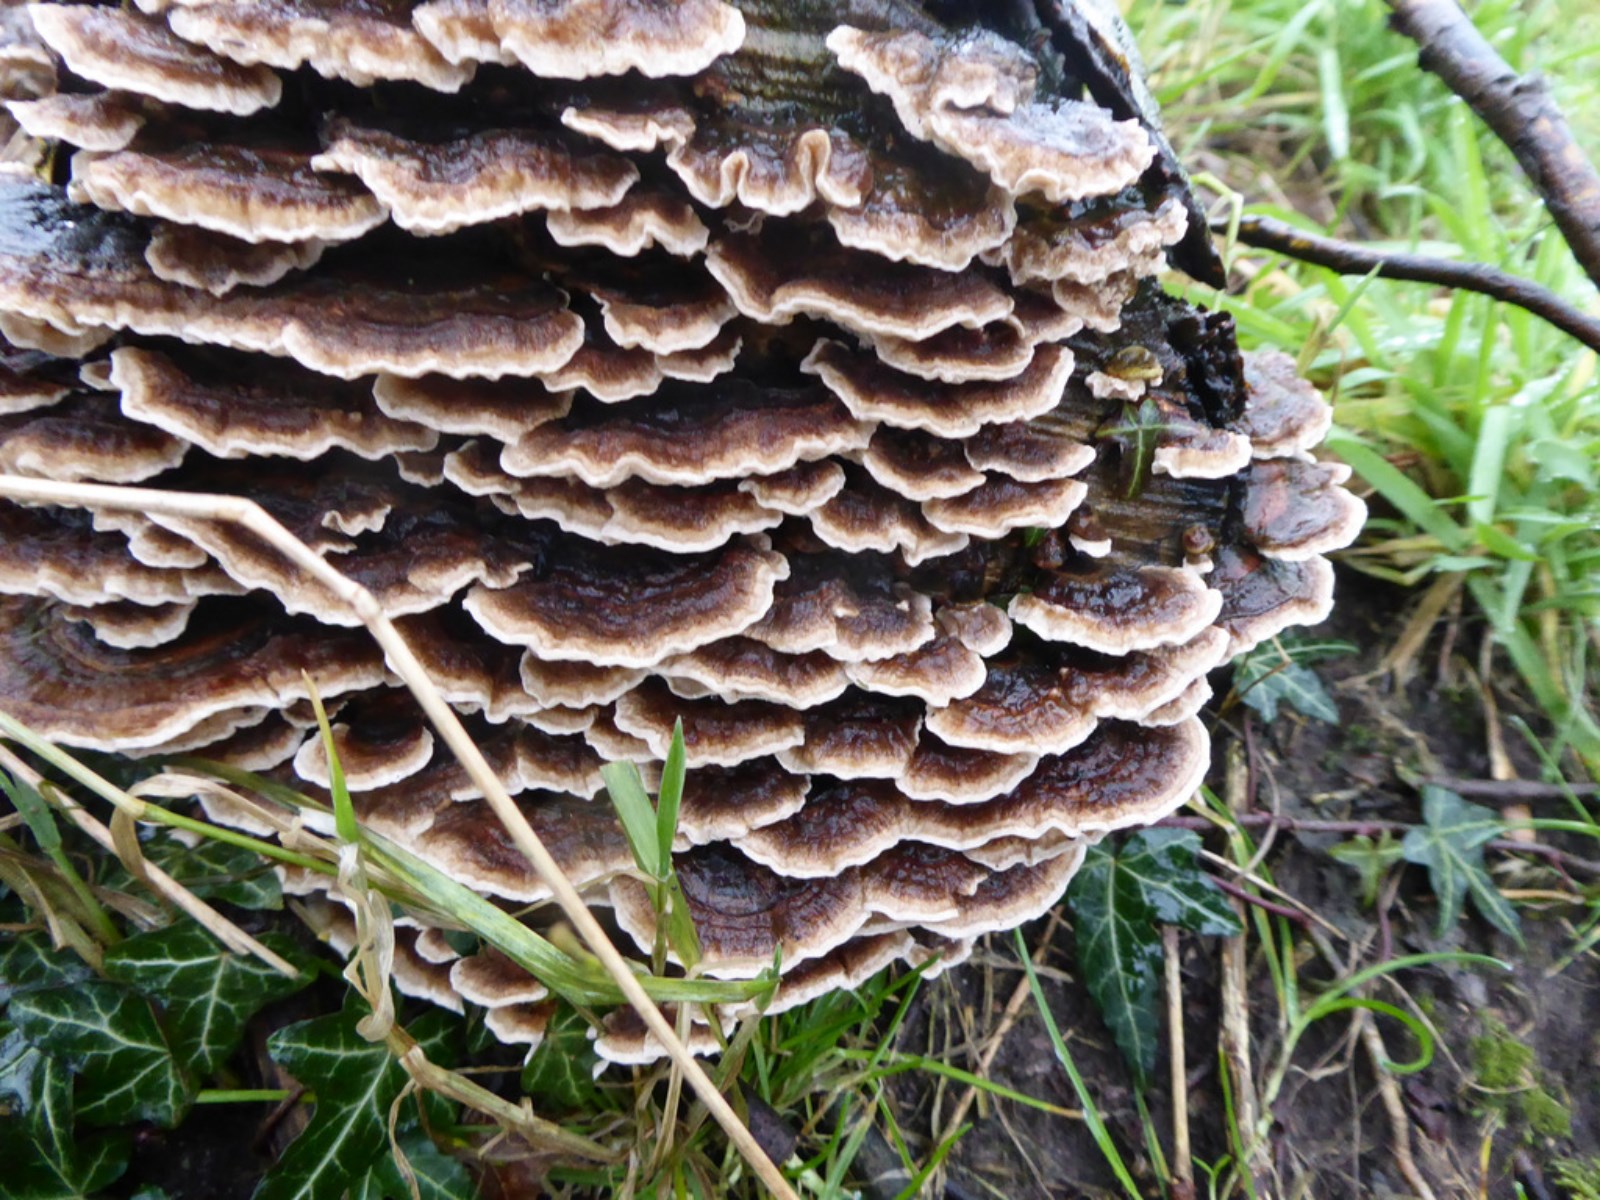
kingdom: Fungi
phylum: Basidiomycota
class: Agaricomycetes
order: Polyporales
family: Phanerochaetaceae
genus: Bjerkandera
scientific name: Bjerkandera adusta
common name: sveden sodporesvamp
